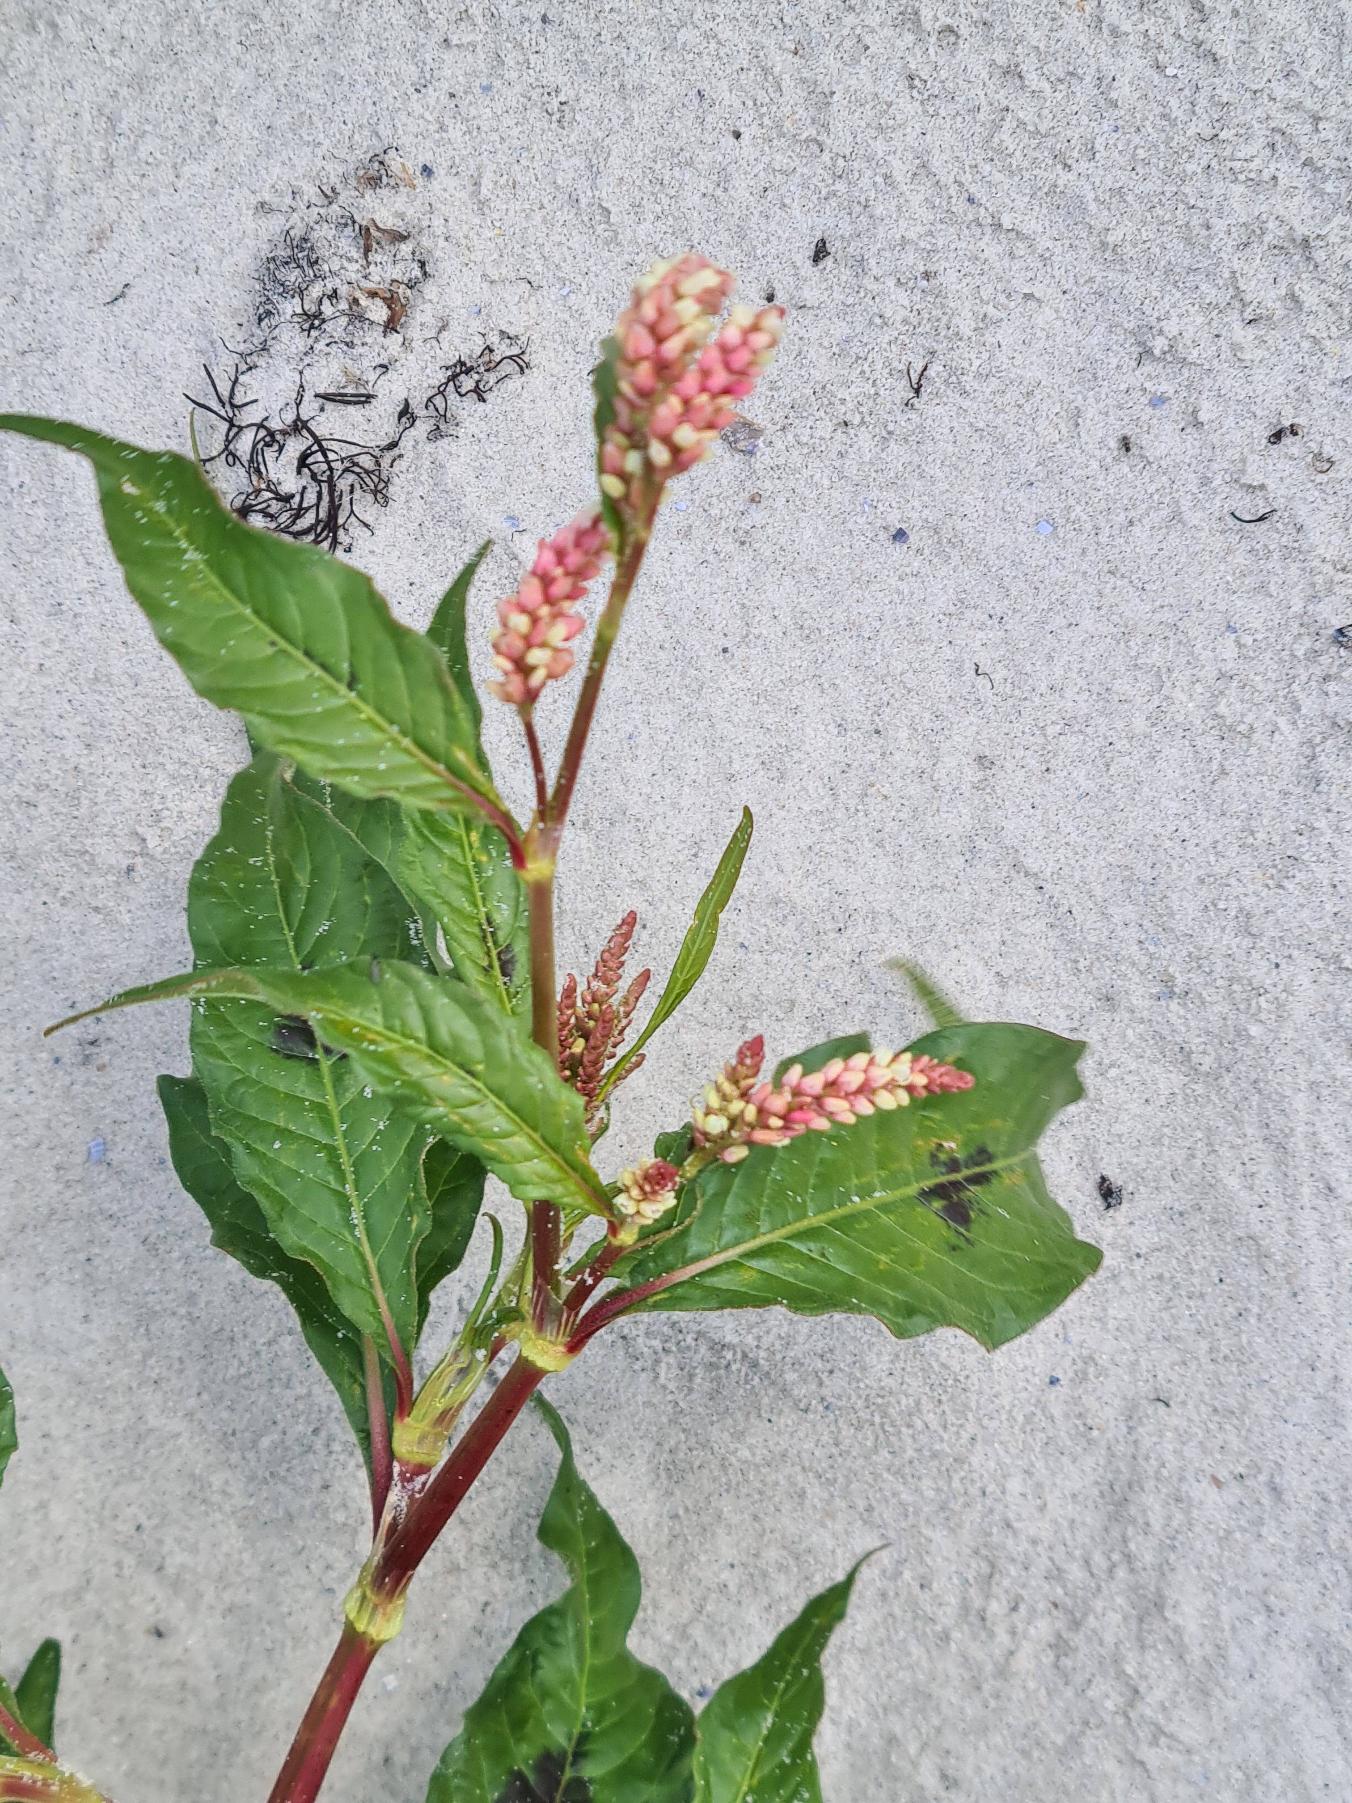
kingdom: Plantae
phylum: Tracheophyta
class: Magnoliopsida
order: Caryophyllales
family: Polygonaceae
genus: Persicaria
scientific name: Persicaria maculosa
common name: Fersken-pileurt
